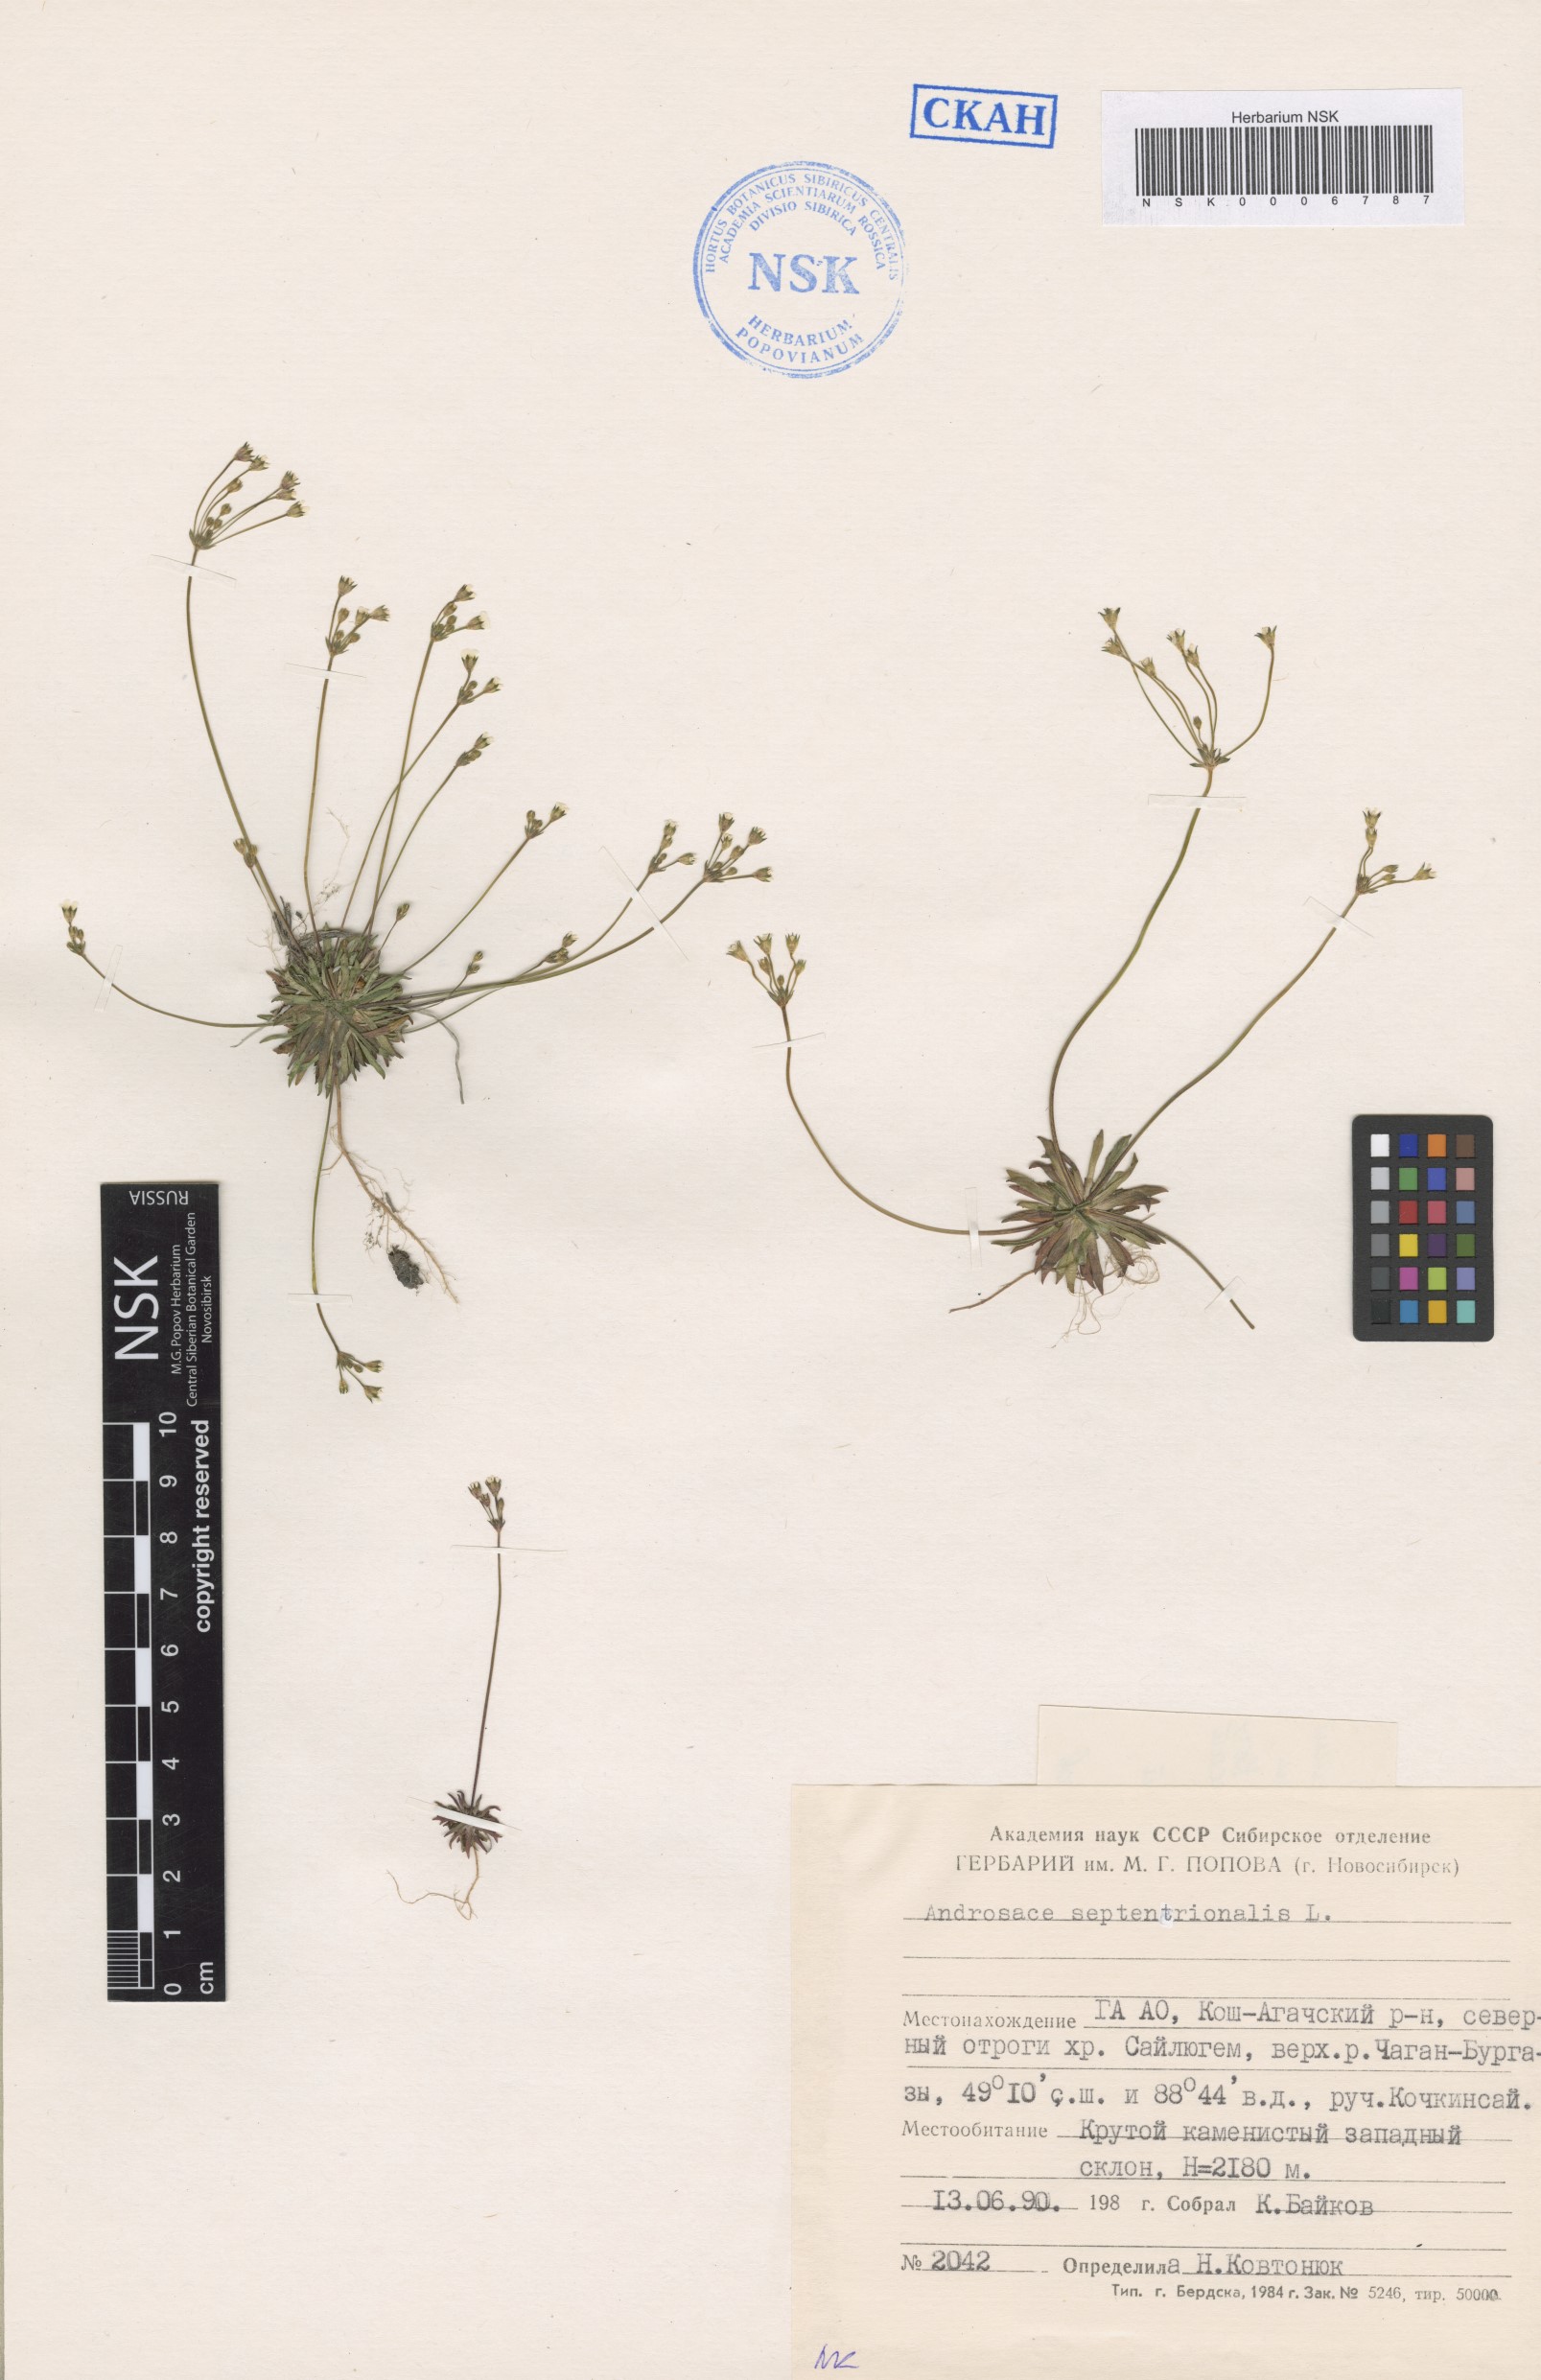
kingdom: Plantae
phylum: Tracheophyta
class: Magnoliopsida
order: Ericales
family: Primulaceae
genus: Androsace
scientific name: Androsace septentrionalis
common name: Hairy northern fairy-candelabra
